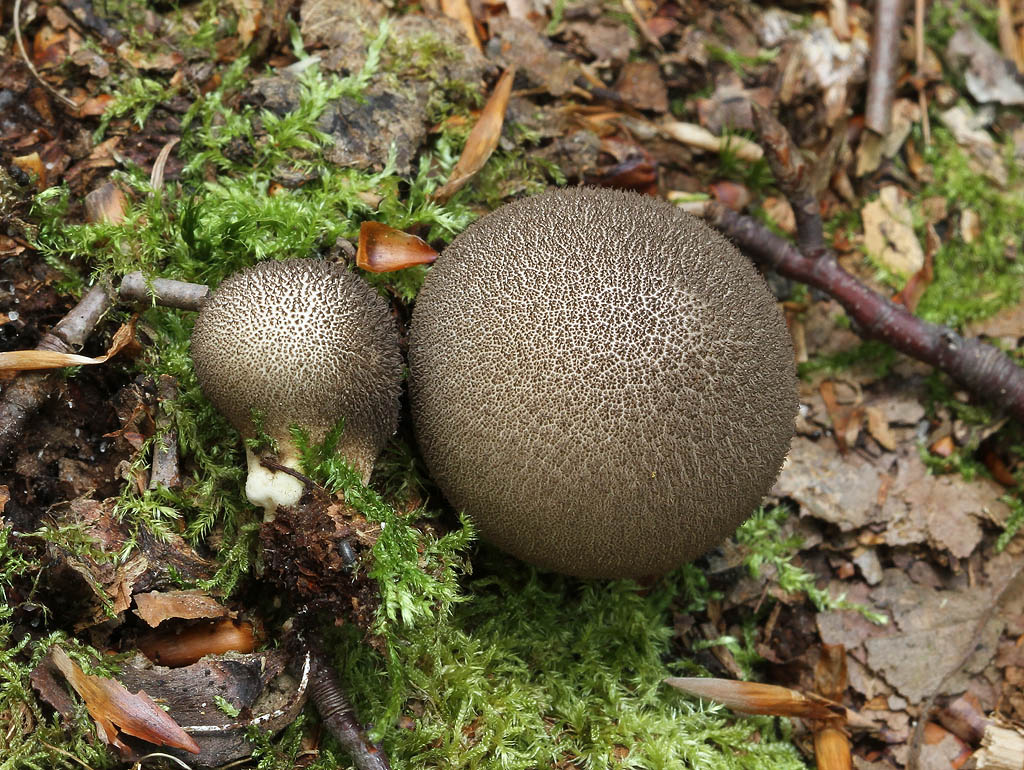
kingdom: Fungi
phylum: Basidiomycota
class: Agaricomycetes
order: Agaricales
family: Lycoperdaceae
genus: Lycoperdon
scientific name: Lycoperdon nigrescens
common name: sortagtig støvbold
